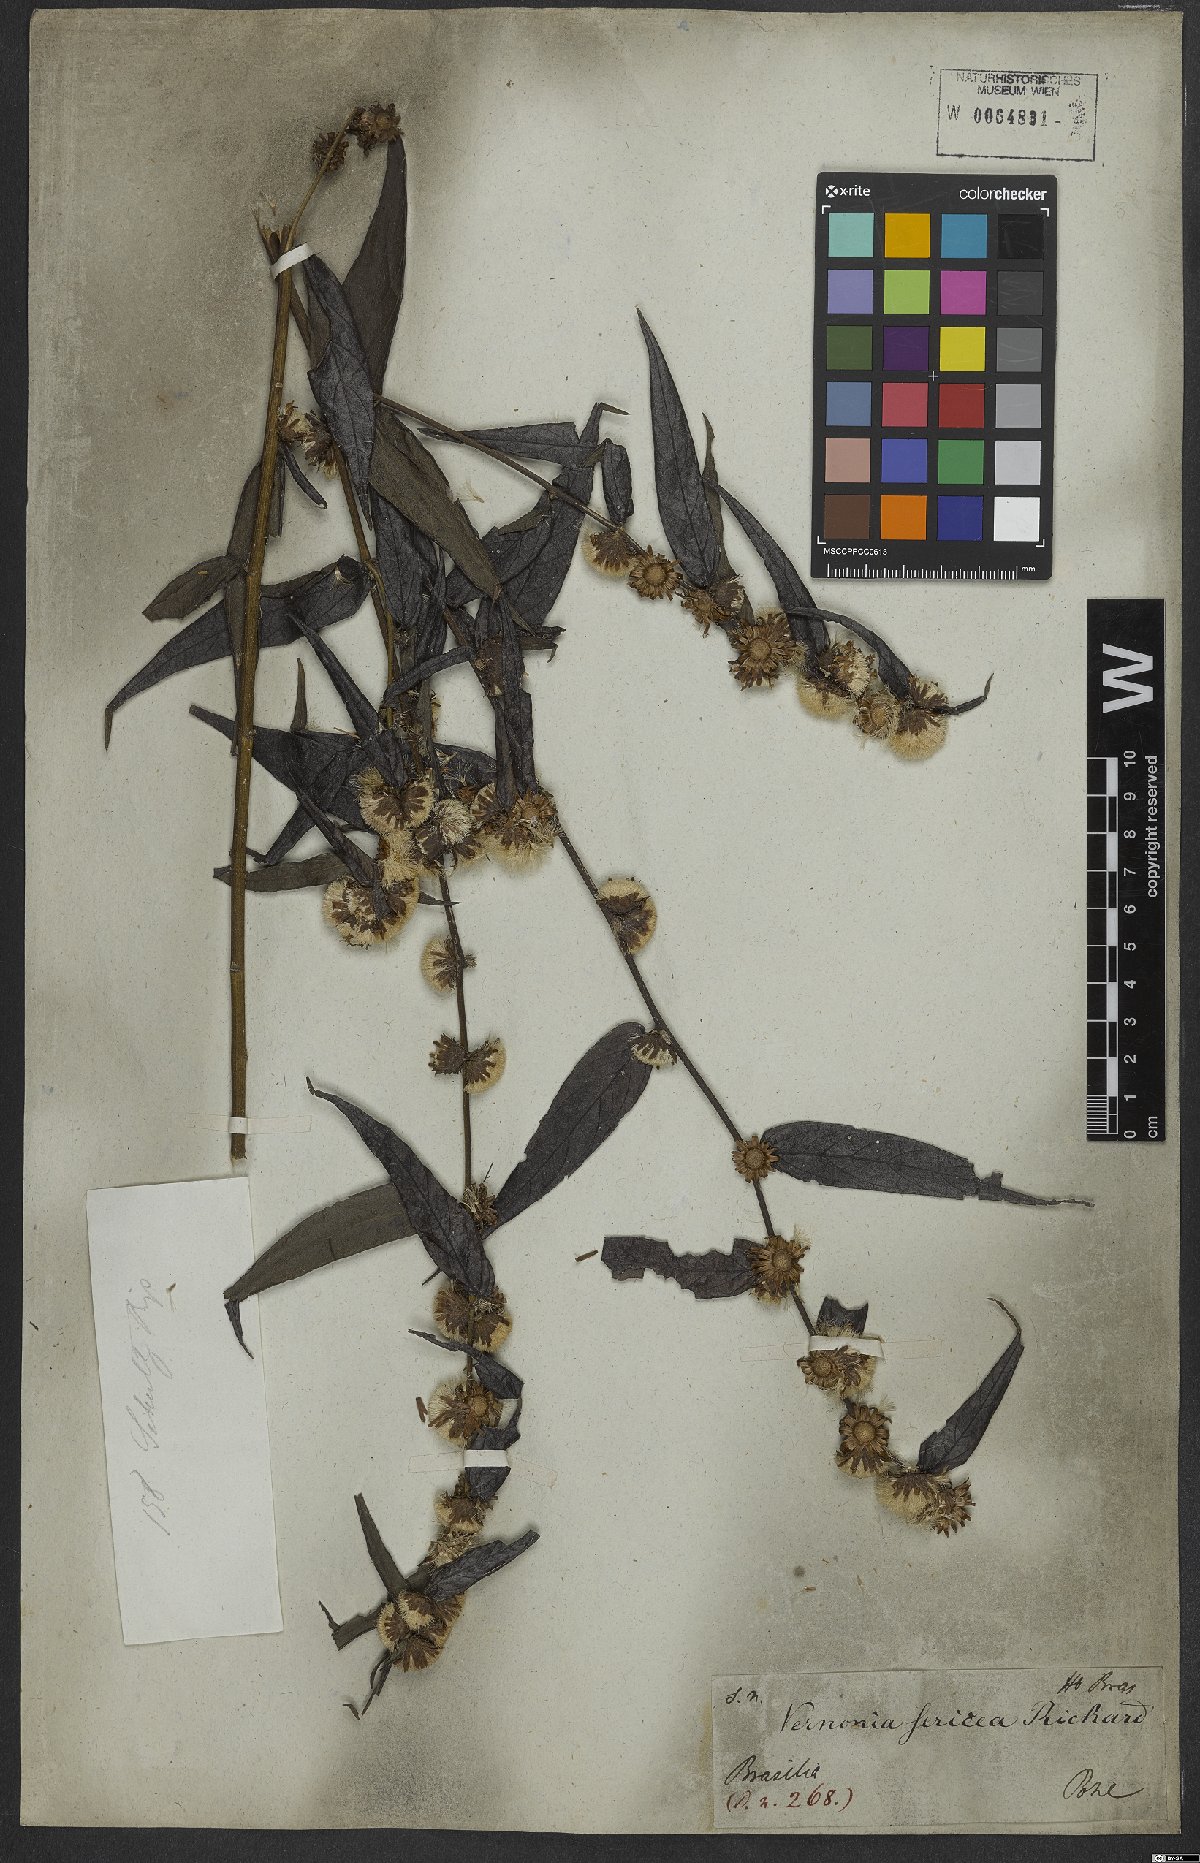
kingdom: Plantae
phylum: Tracheophyta
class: Magnoliopsida
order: Asterales
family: Asteraceae
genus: Lepidaploa
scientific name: Lepidaploa sericea
